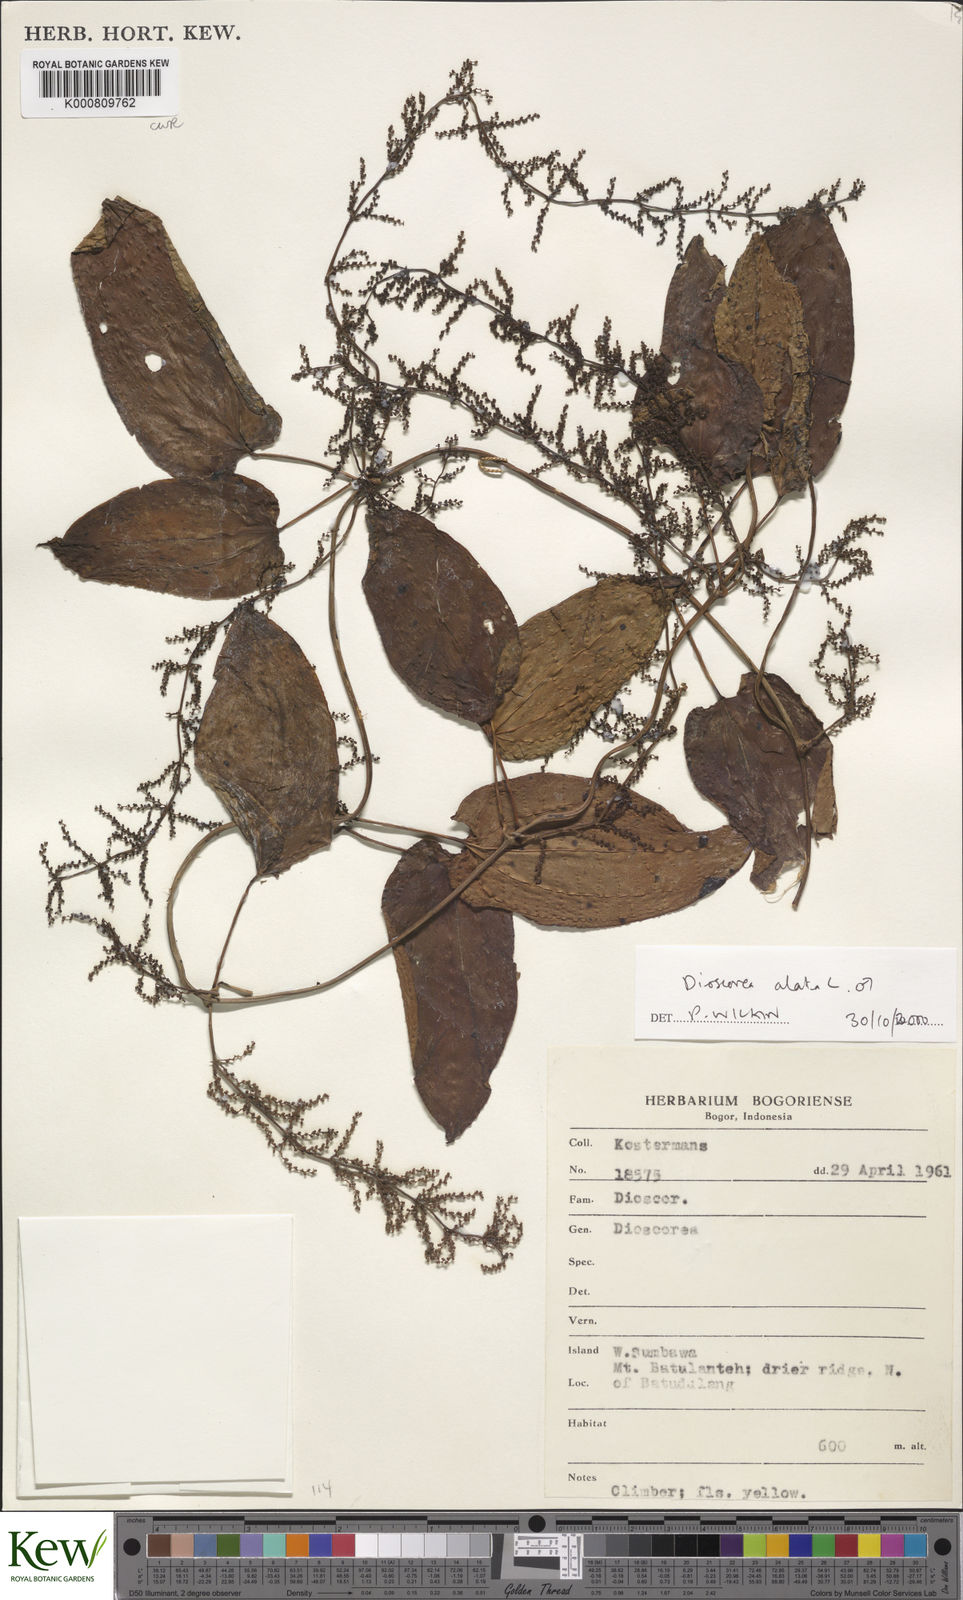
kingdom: Plantae
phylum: Tracheophyta
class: Liliopsida
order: Dioscoreales
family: Dioscoreaceae
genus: Dioscorea
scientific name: Dioscorea alata
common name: Water yam
